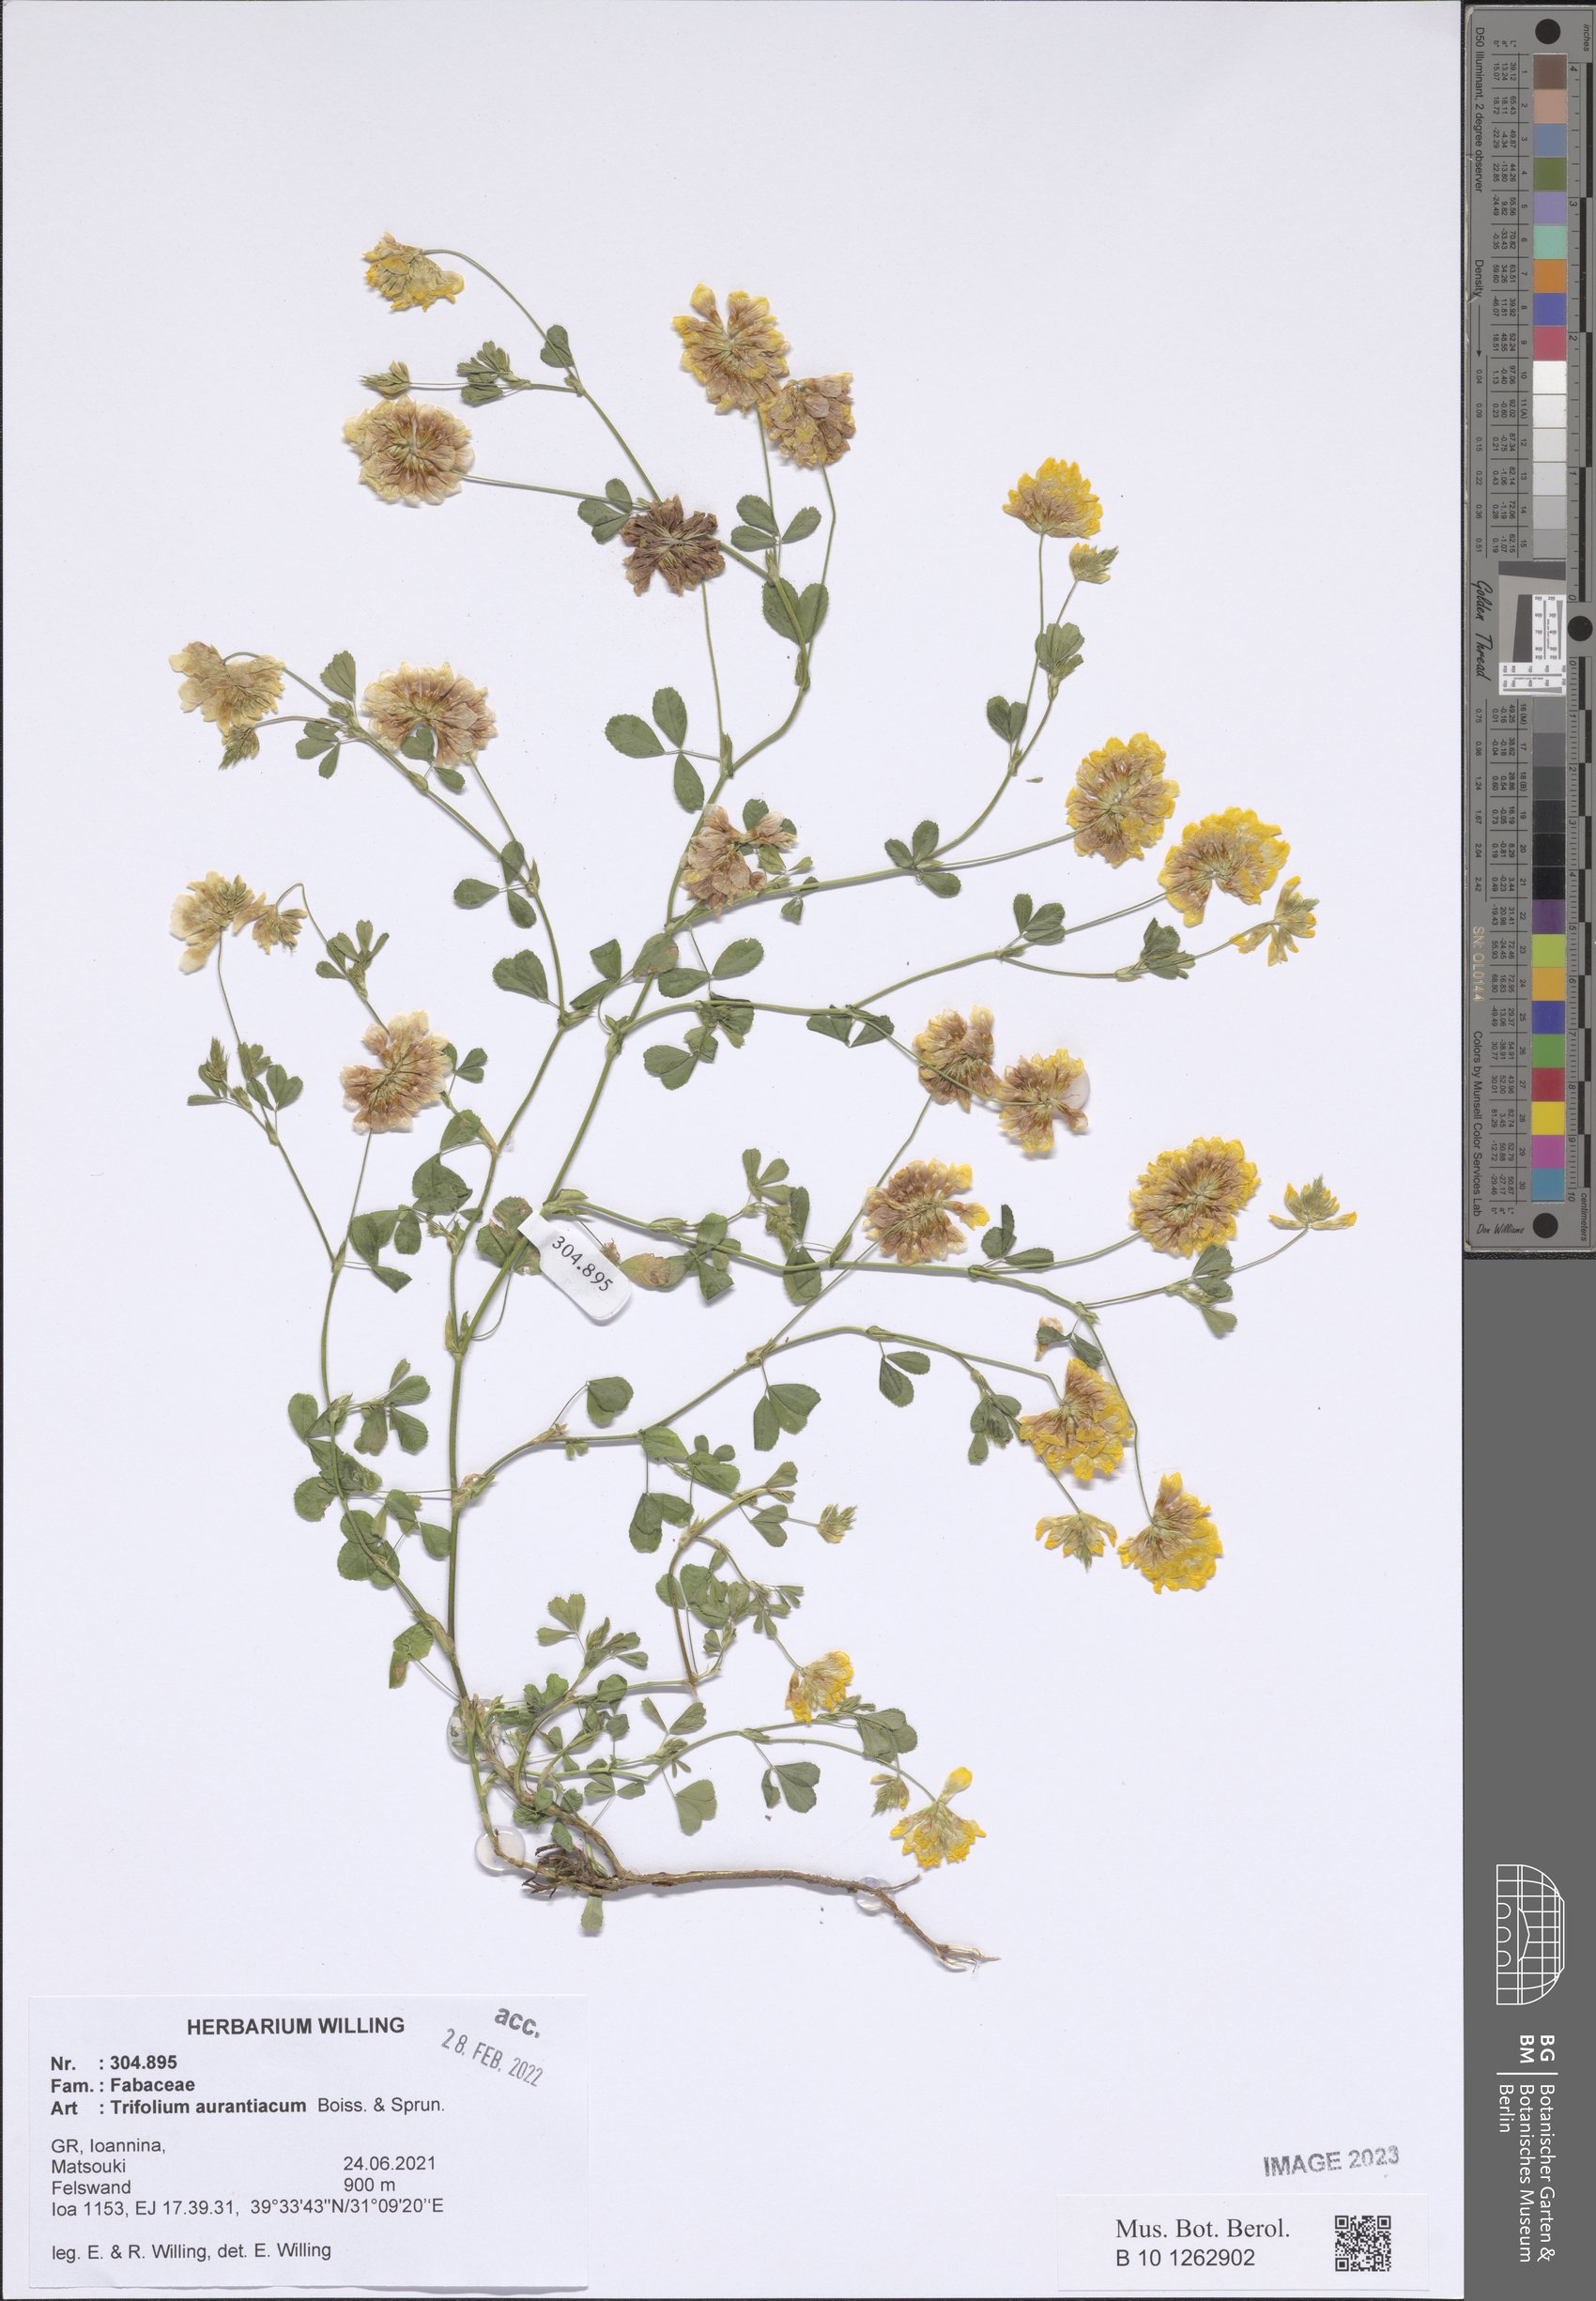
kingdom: Plantae
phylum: Tracheophyta
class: Magnoliopsida
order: Fabales
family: Fabaceae
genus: Trifolium
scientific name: Trifolium aurantiacum
